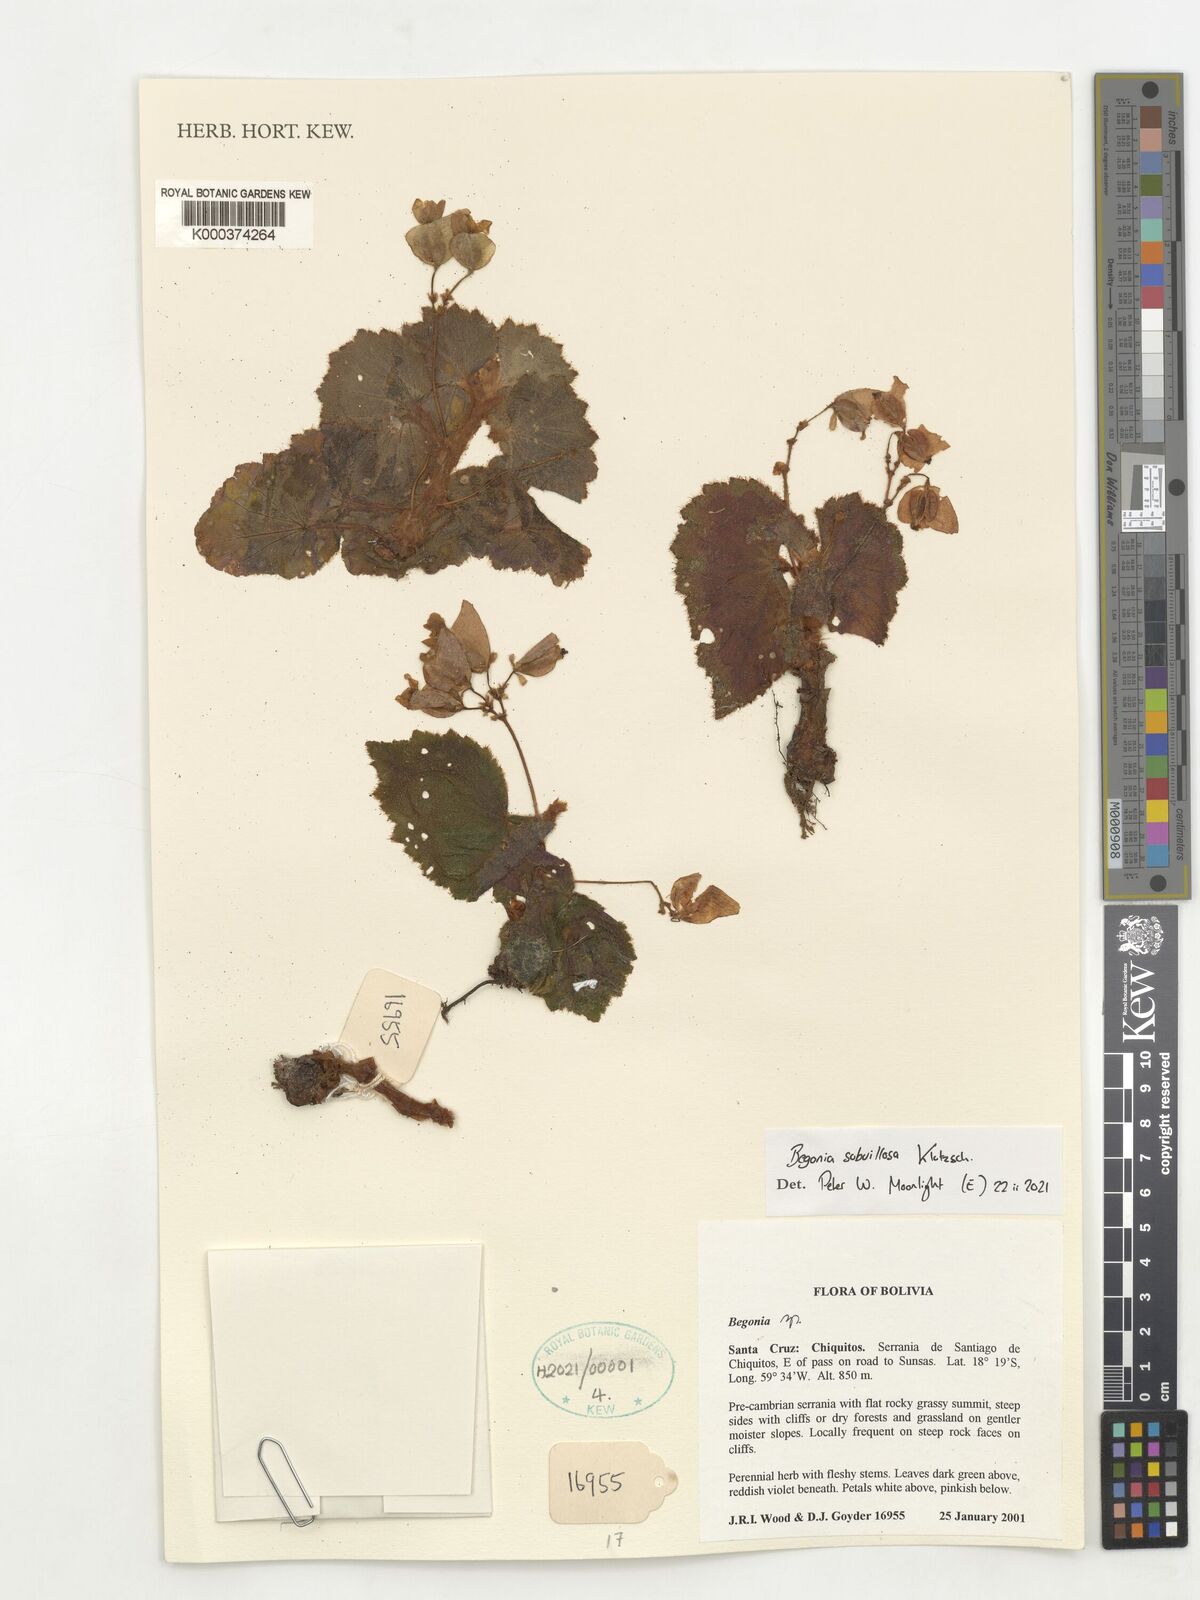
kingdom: Plantae
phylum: Tracheophyta
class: Magnoliopsida
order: Cucurbitales
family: Begoniaceae
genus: Begonia
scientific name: Begonia subvillosa
